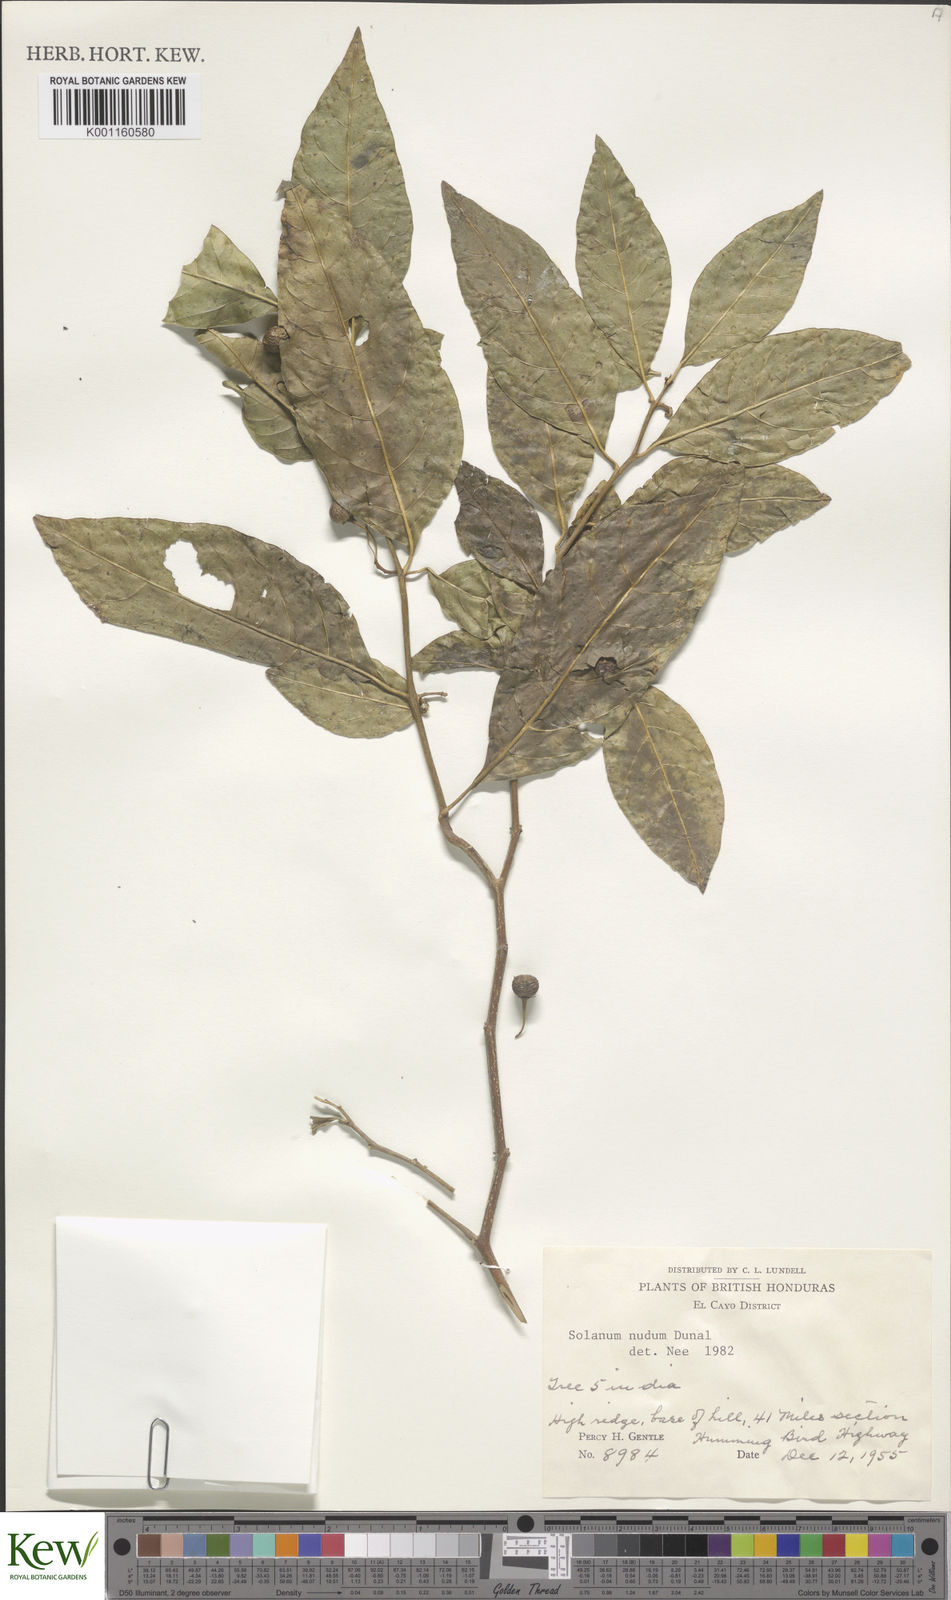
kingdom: Plantae
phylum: Tracheophyta
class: Magnoliopsida
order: Solanales
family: Solanaceae
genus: Solanum
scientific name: Solanum nudum
